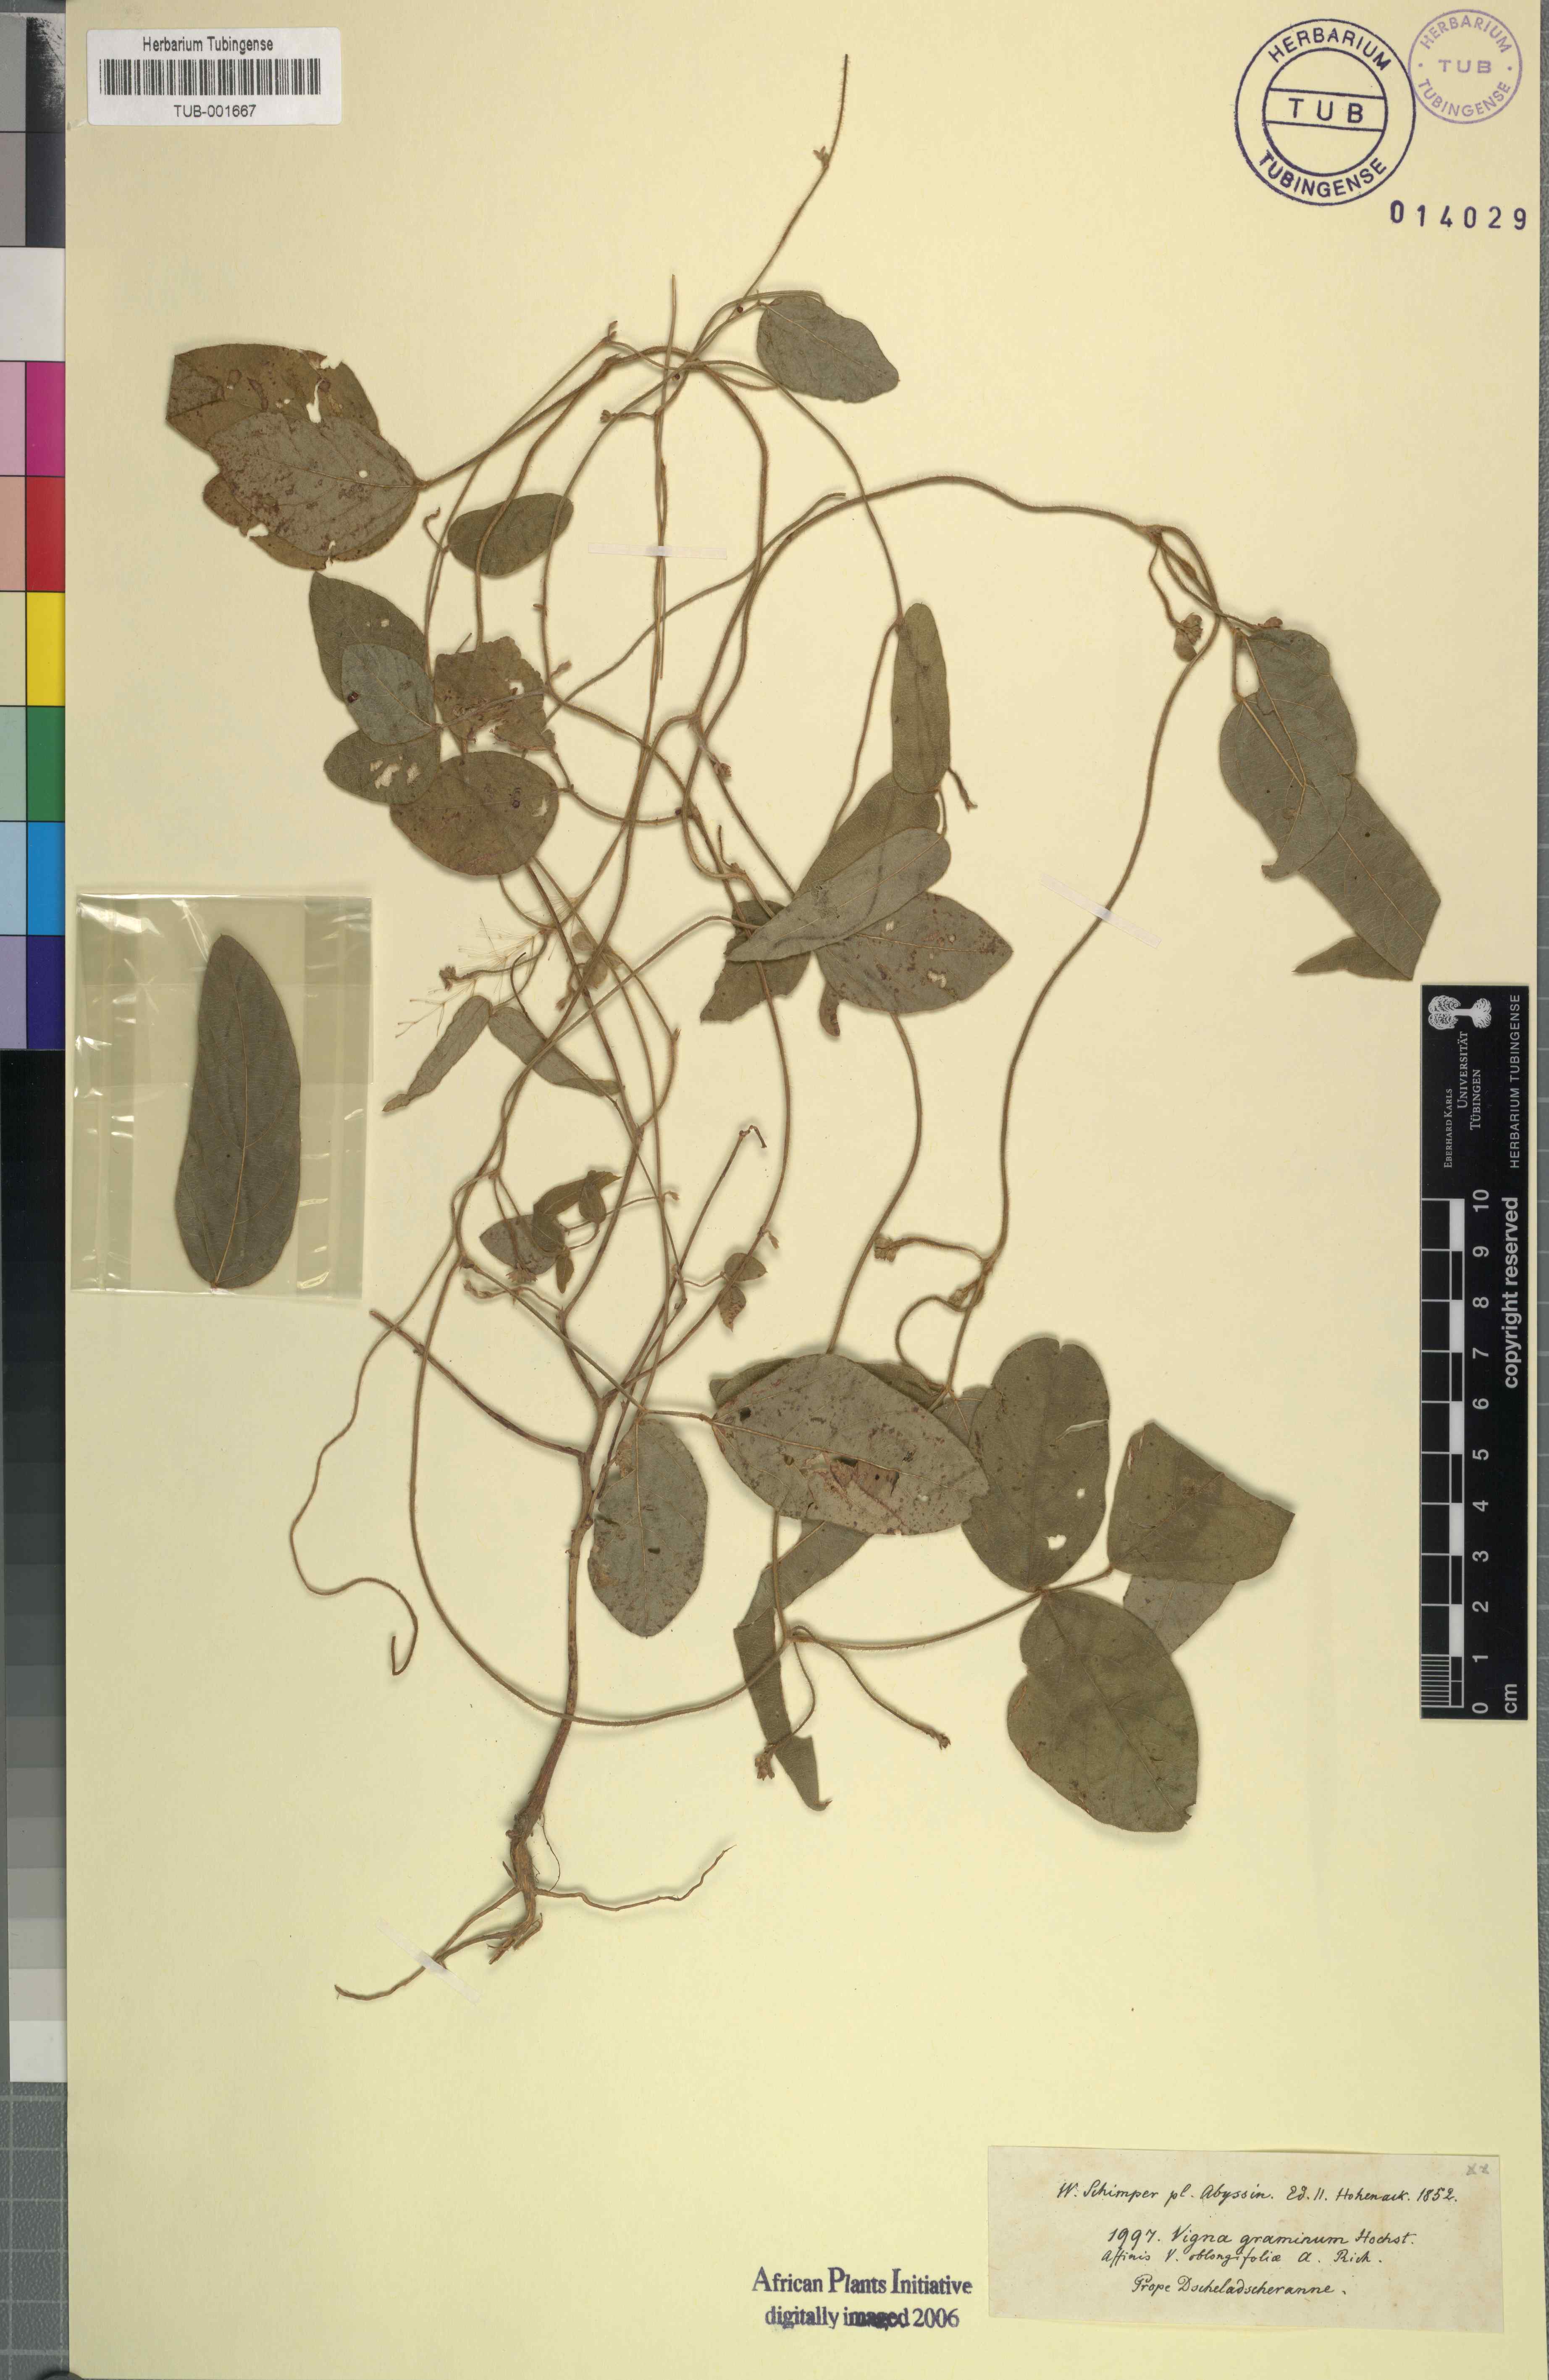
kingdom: Plantae
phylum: Tracheophyta
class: Magnoliopsida
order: Fabales
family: Fabaceae
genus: Vigna
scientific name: Vigna
